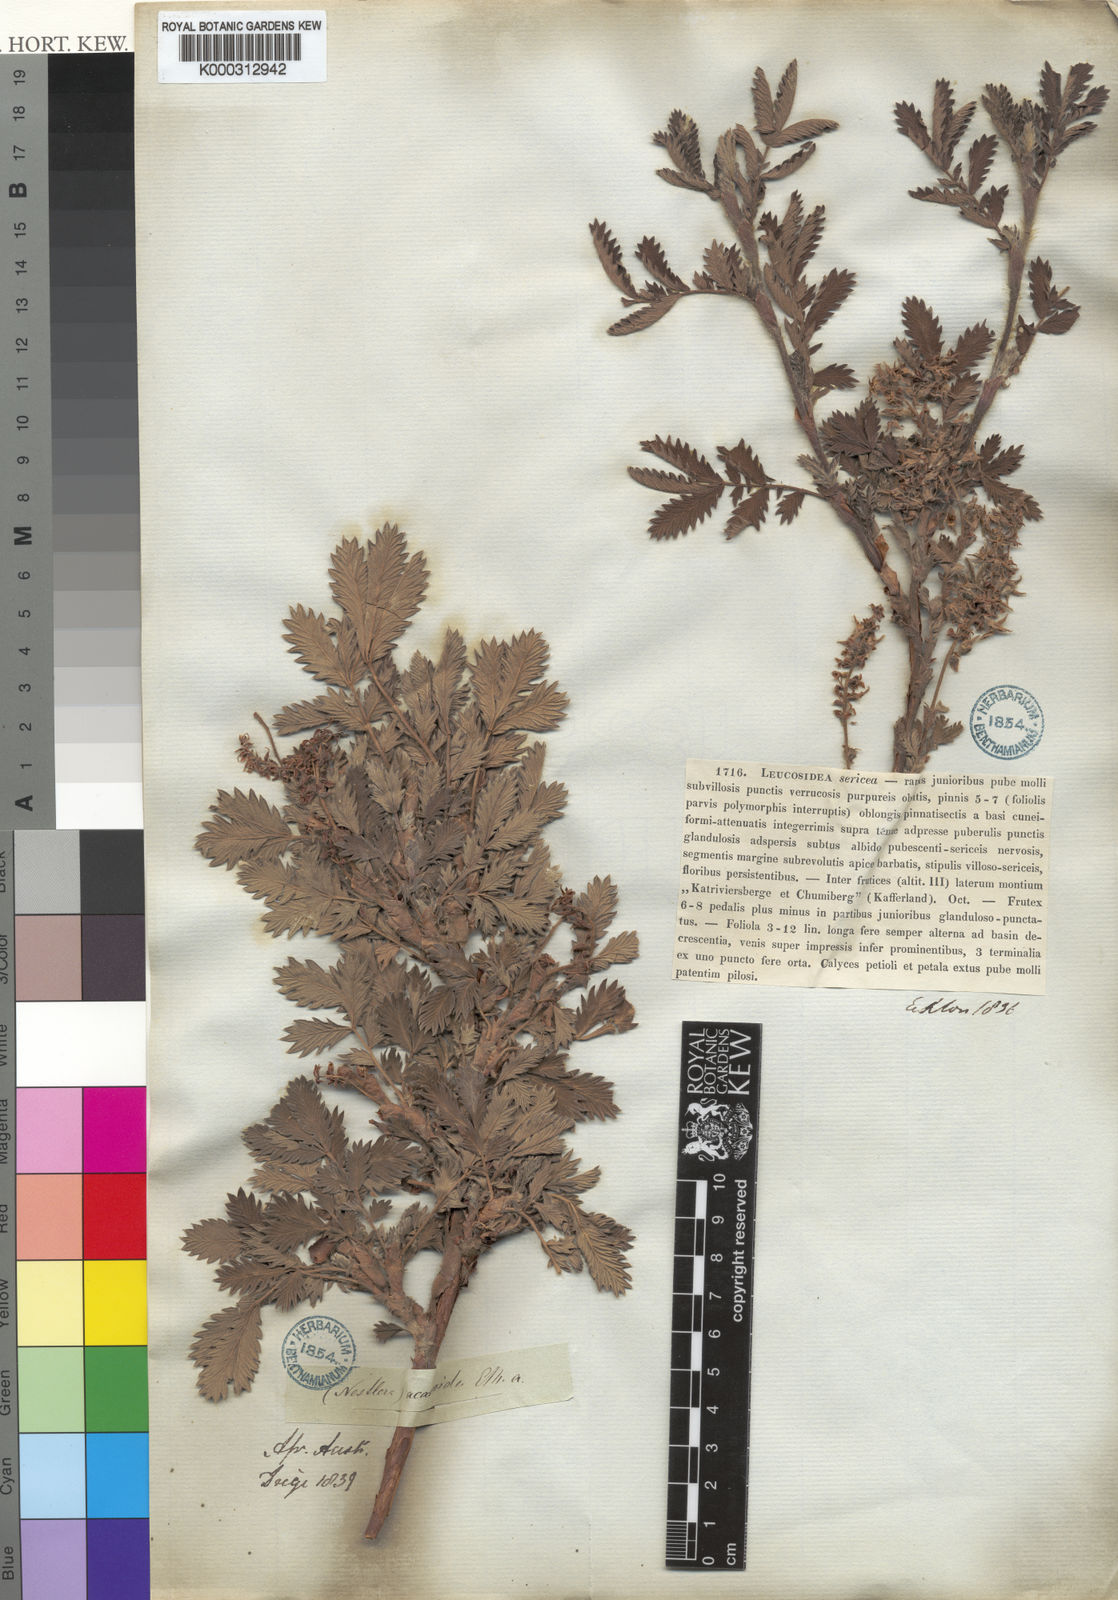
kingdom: Plantae
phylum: Tracheophyta
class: Magnoliopsida
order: Rosales
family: Rosaceae
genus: Leucosidea
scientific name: Leucosidea sericea
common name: Oldwood
